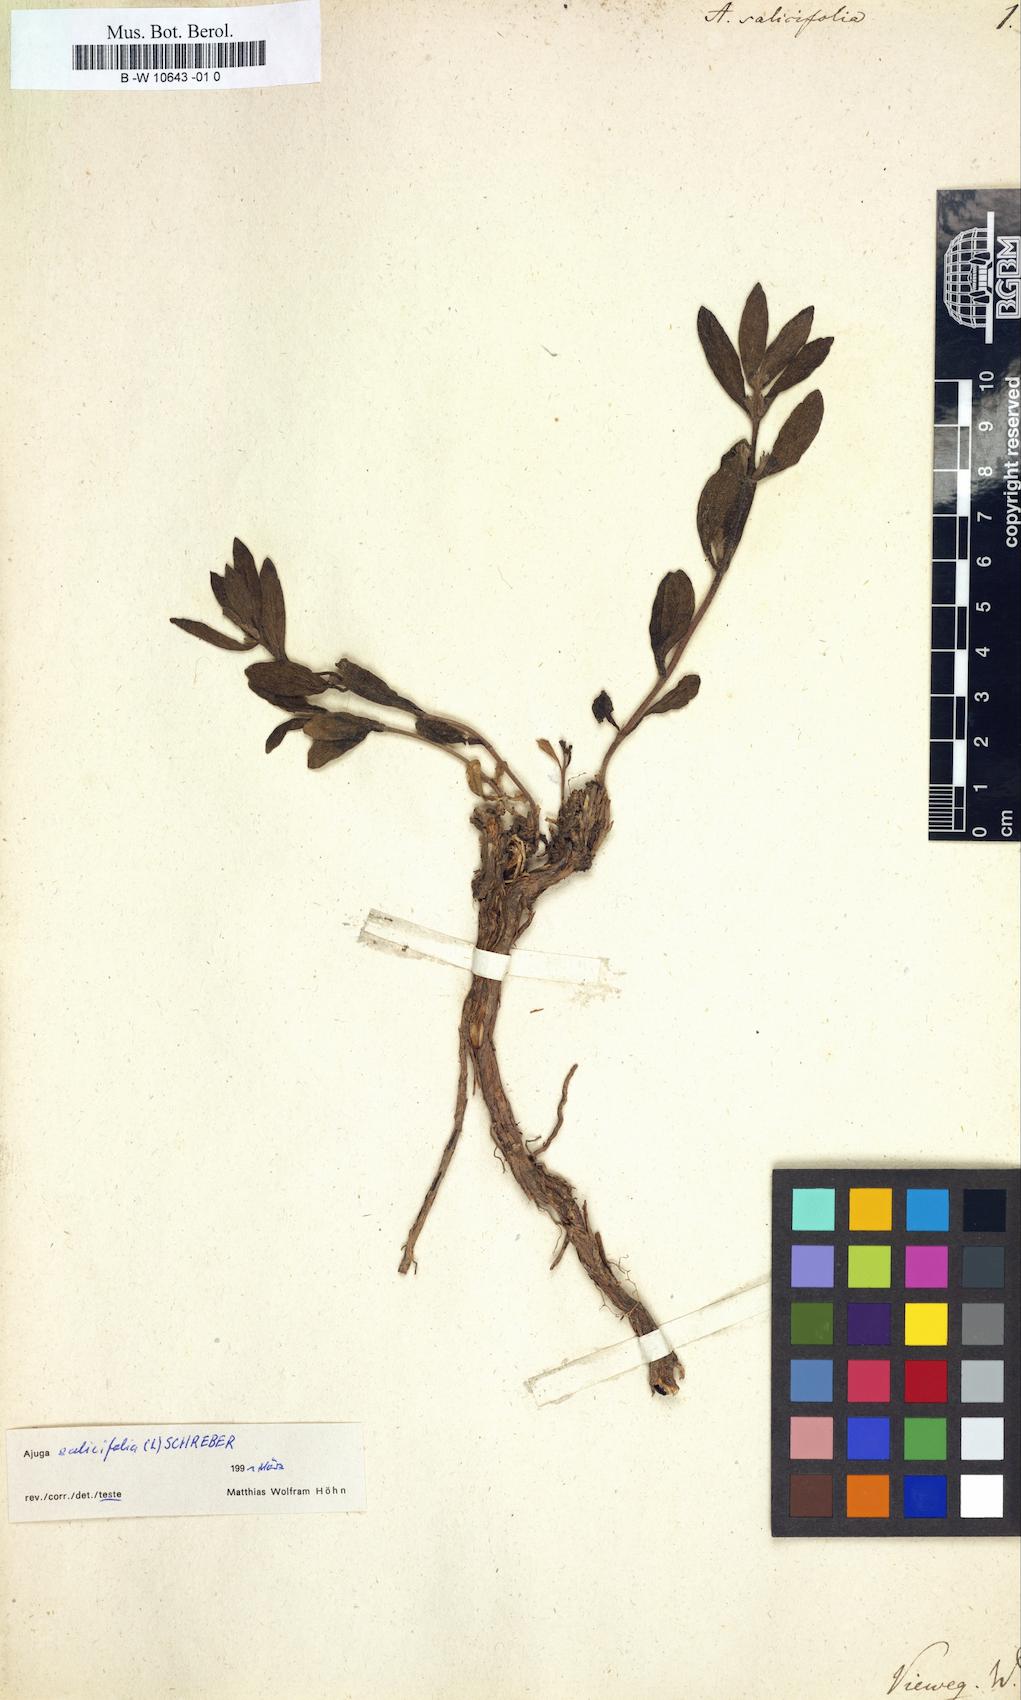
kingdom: Plantae
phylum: Tracheophyta
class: Magnoliopsida
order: Lamiales
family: Lamiaceae
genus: Ajuga
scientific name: Ajuga salicifolia
